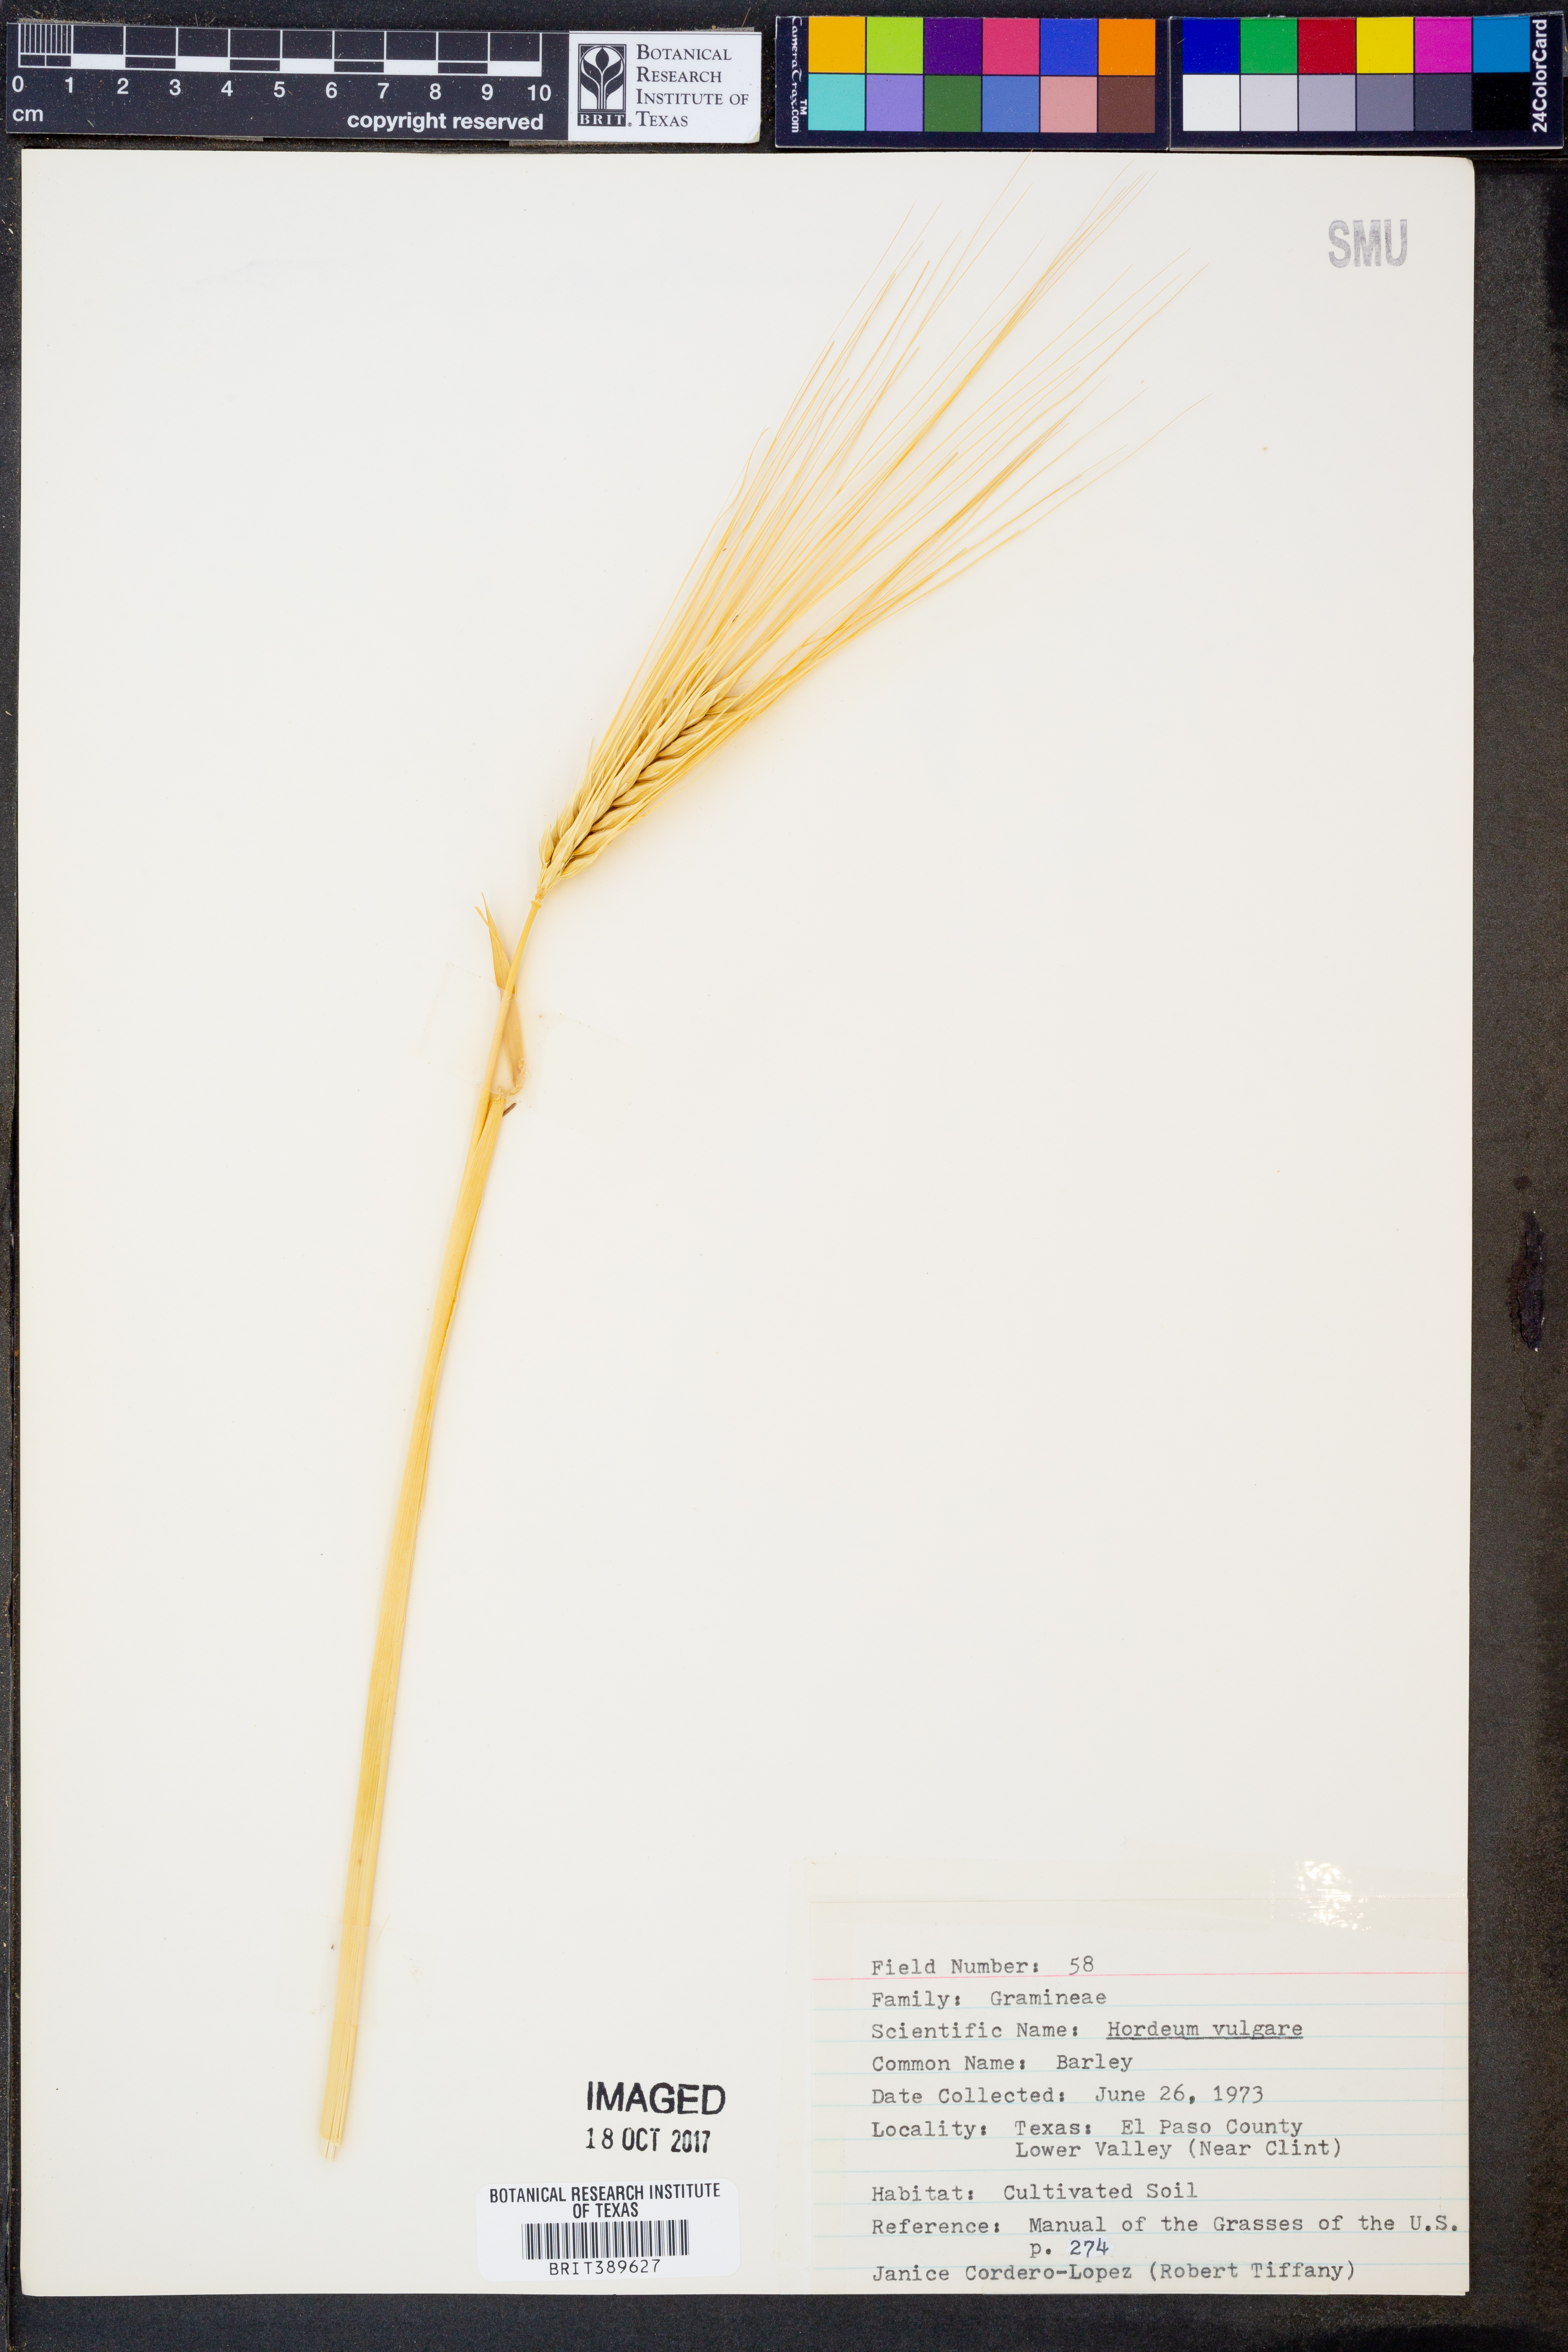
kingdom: Plantae
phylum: Tracheophyta
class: Liliopsida
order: Poales
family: Poaceae
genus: Hordeum
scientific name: Hordeum vulgare
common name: Common barley
